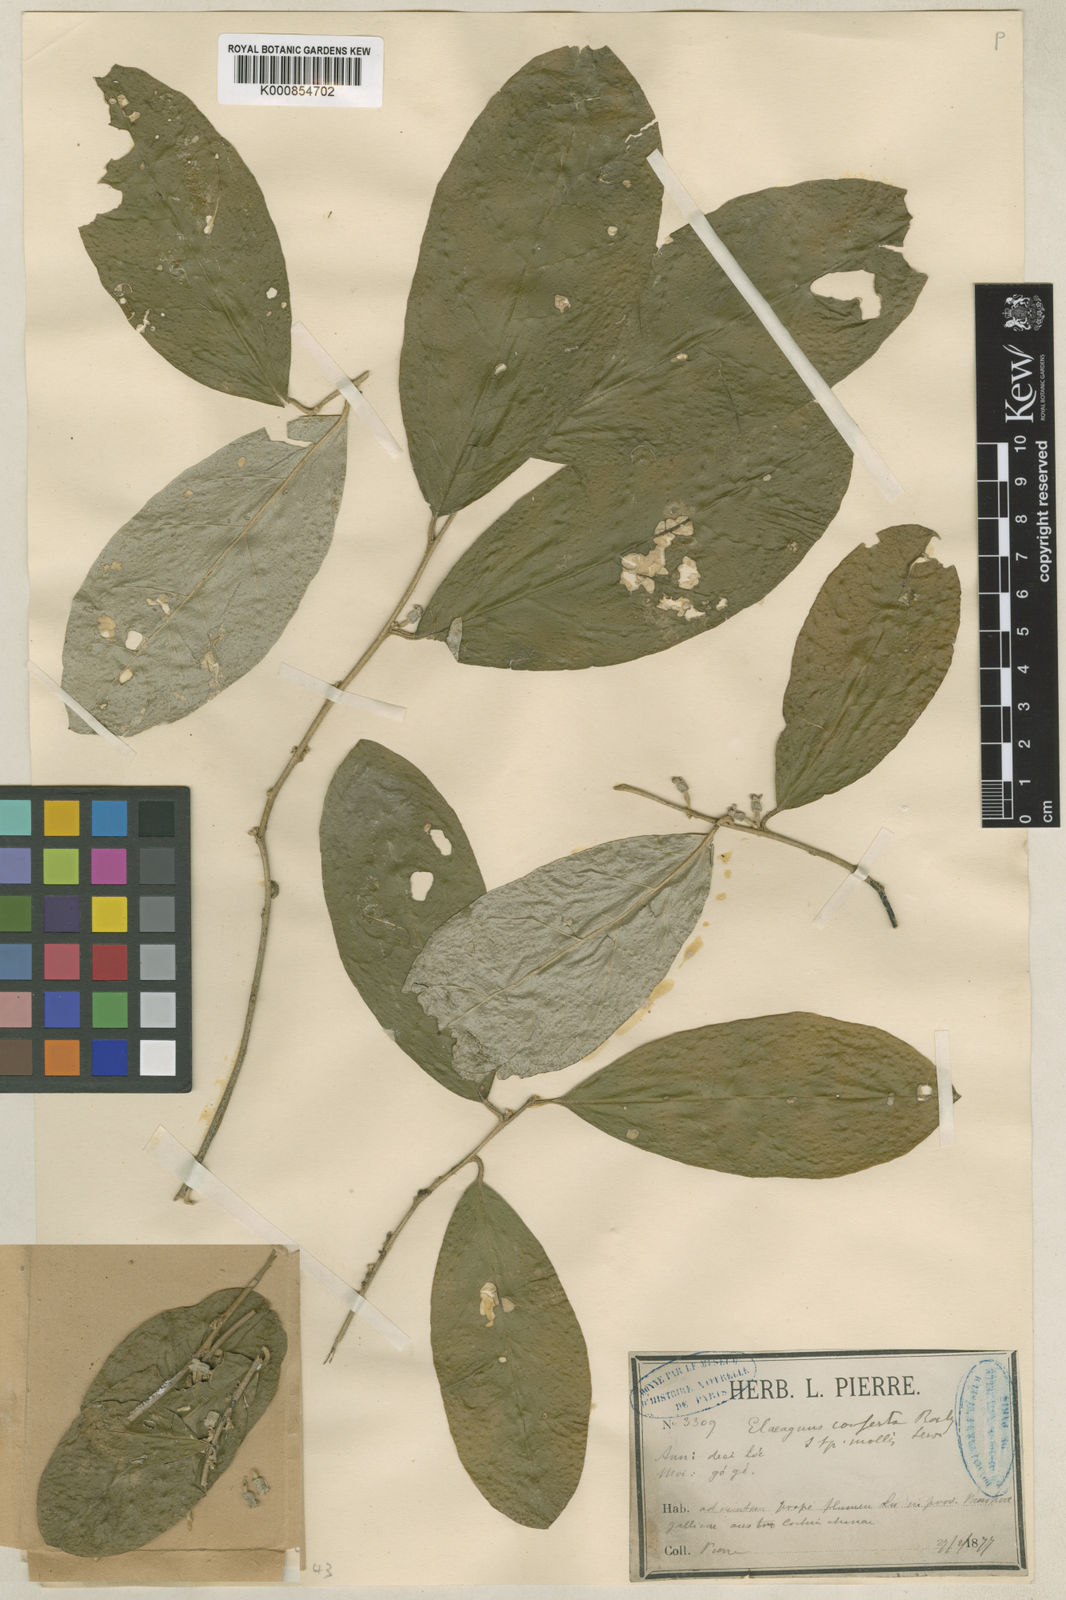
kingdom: Plantae
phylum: Tracheophyta
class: Magnoliopsida
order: Rosales
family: Elaeagnaceae
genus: Elaeagnus
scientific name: Elaeagnus conferta
